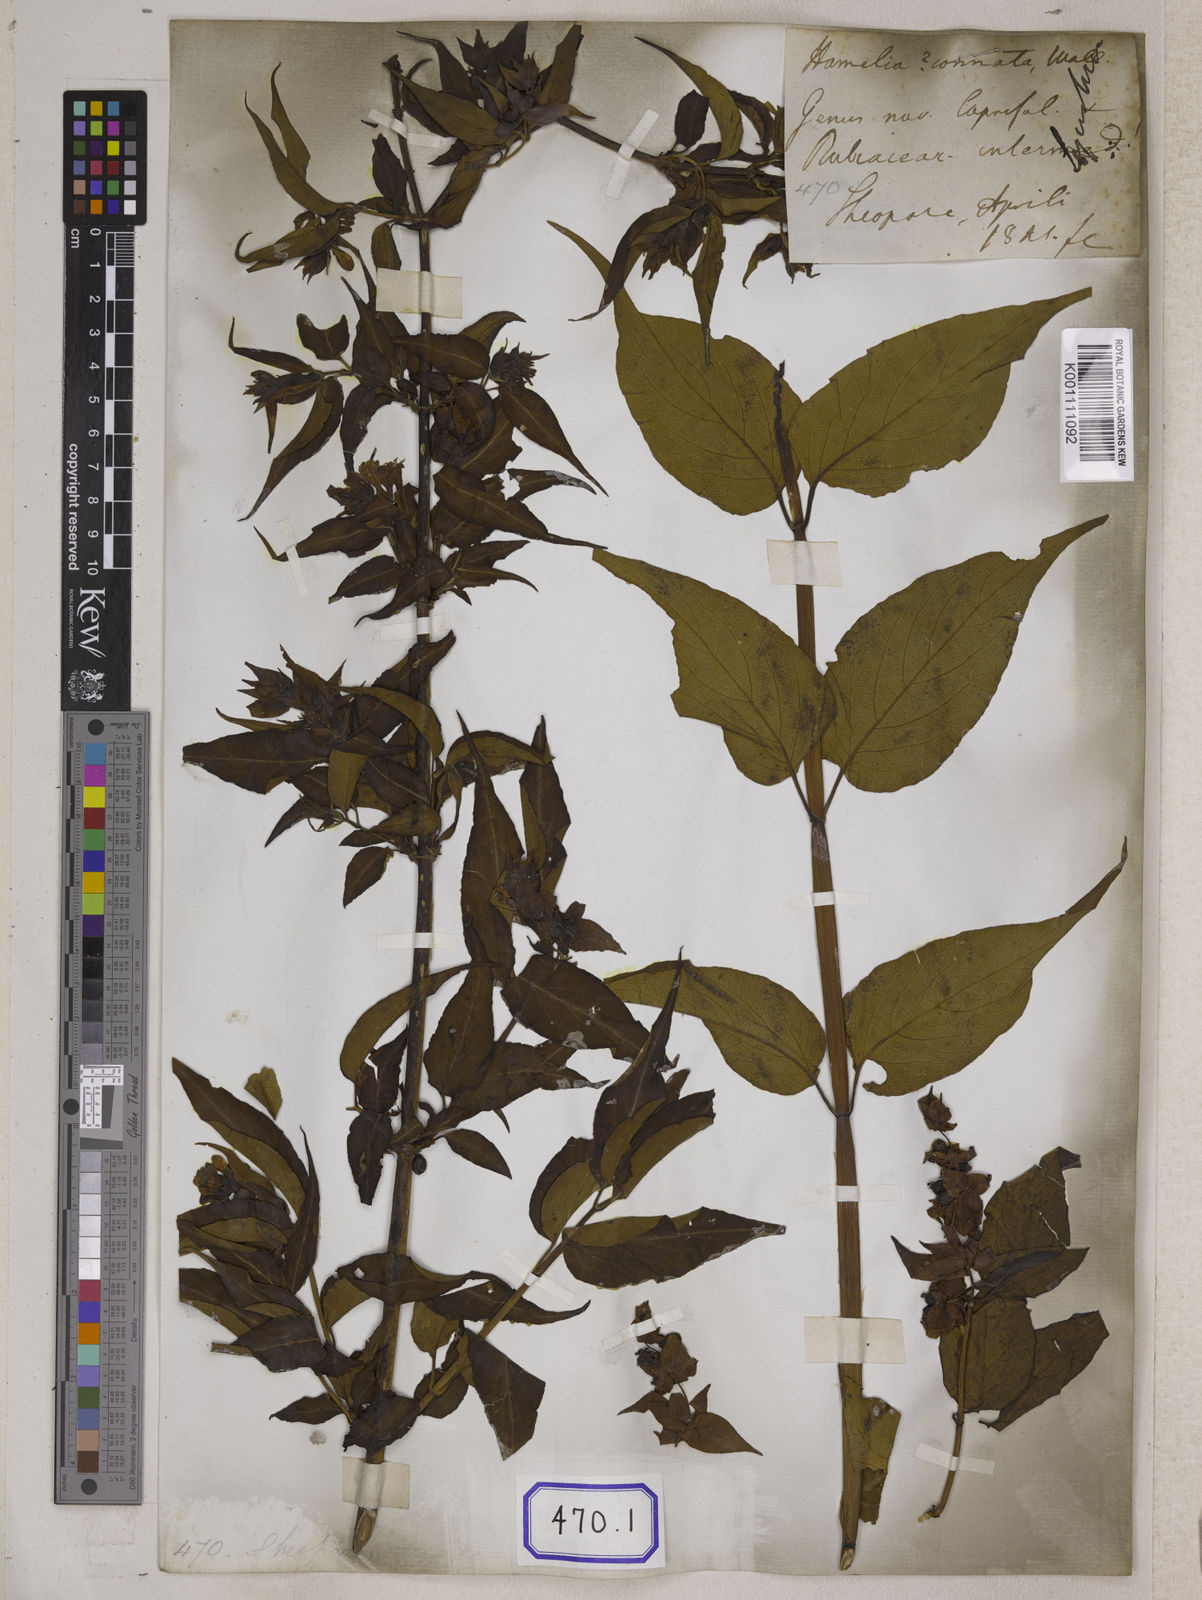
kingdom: Plantae
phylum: Tracheophyta
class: Magnoliopsida
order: Dipsacales
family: Caprifoliaceae
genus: Leycesteria
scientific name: Leycesteria formosa
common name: Himalayan honeysuckle
